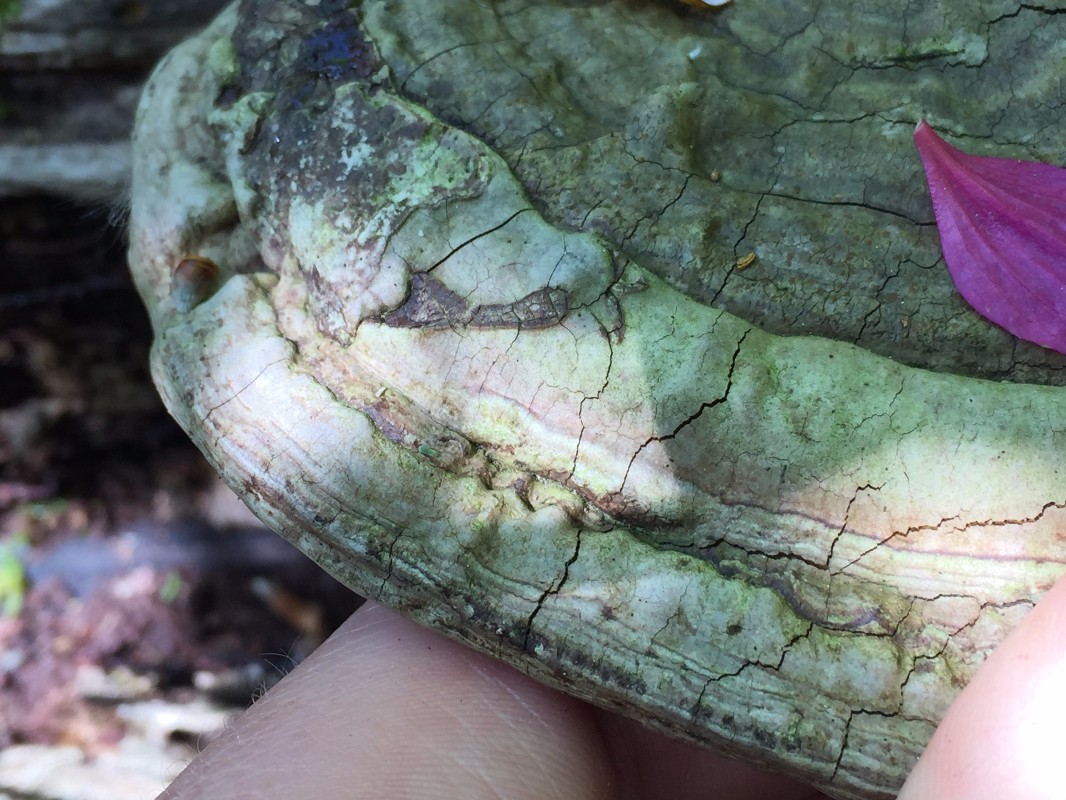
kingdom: Fungi
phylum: Basidiomycota
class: Agaricomycetes
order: Polyporales
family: Polyporaceae
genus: Ganoderma
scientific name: Ganoderma applanatum
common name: flad lakporesvamp
